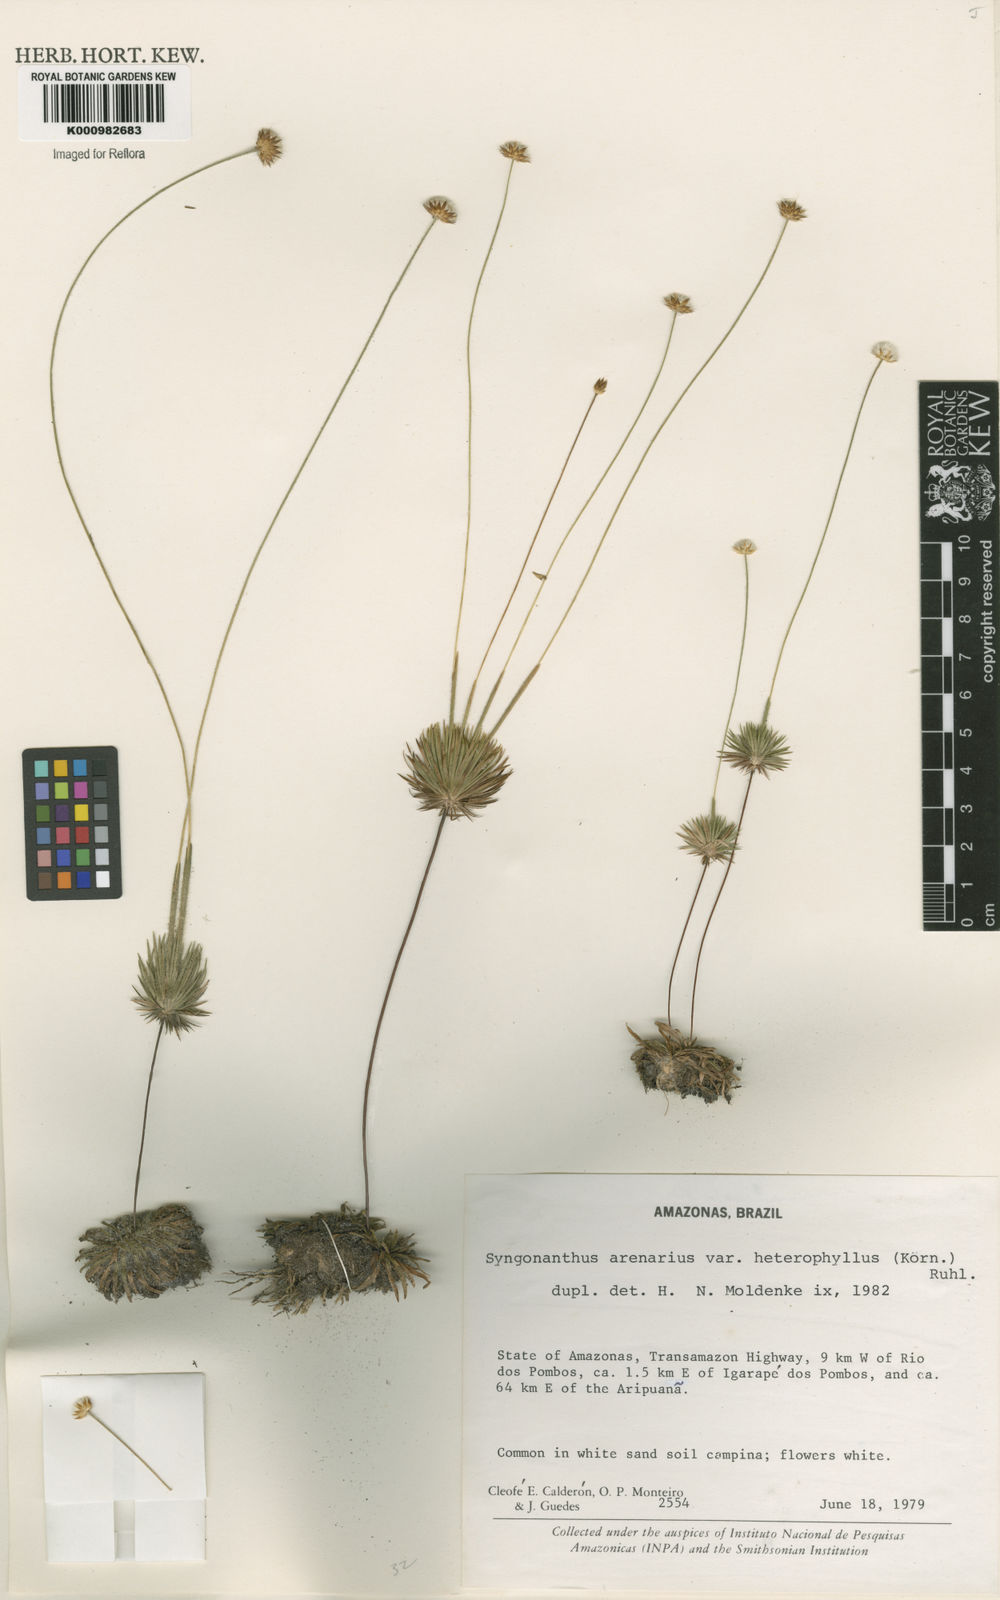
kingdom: Plantae
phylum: Tracheophyta
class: Liliopsida
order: Poales
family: Eriocaulaceae
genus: Syngonanthus
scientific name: Syngonanthus arenarius
